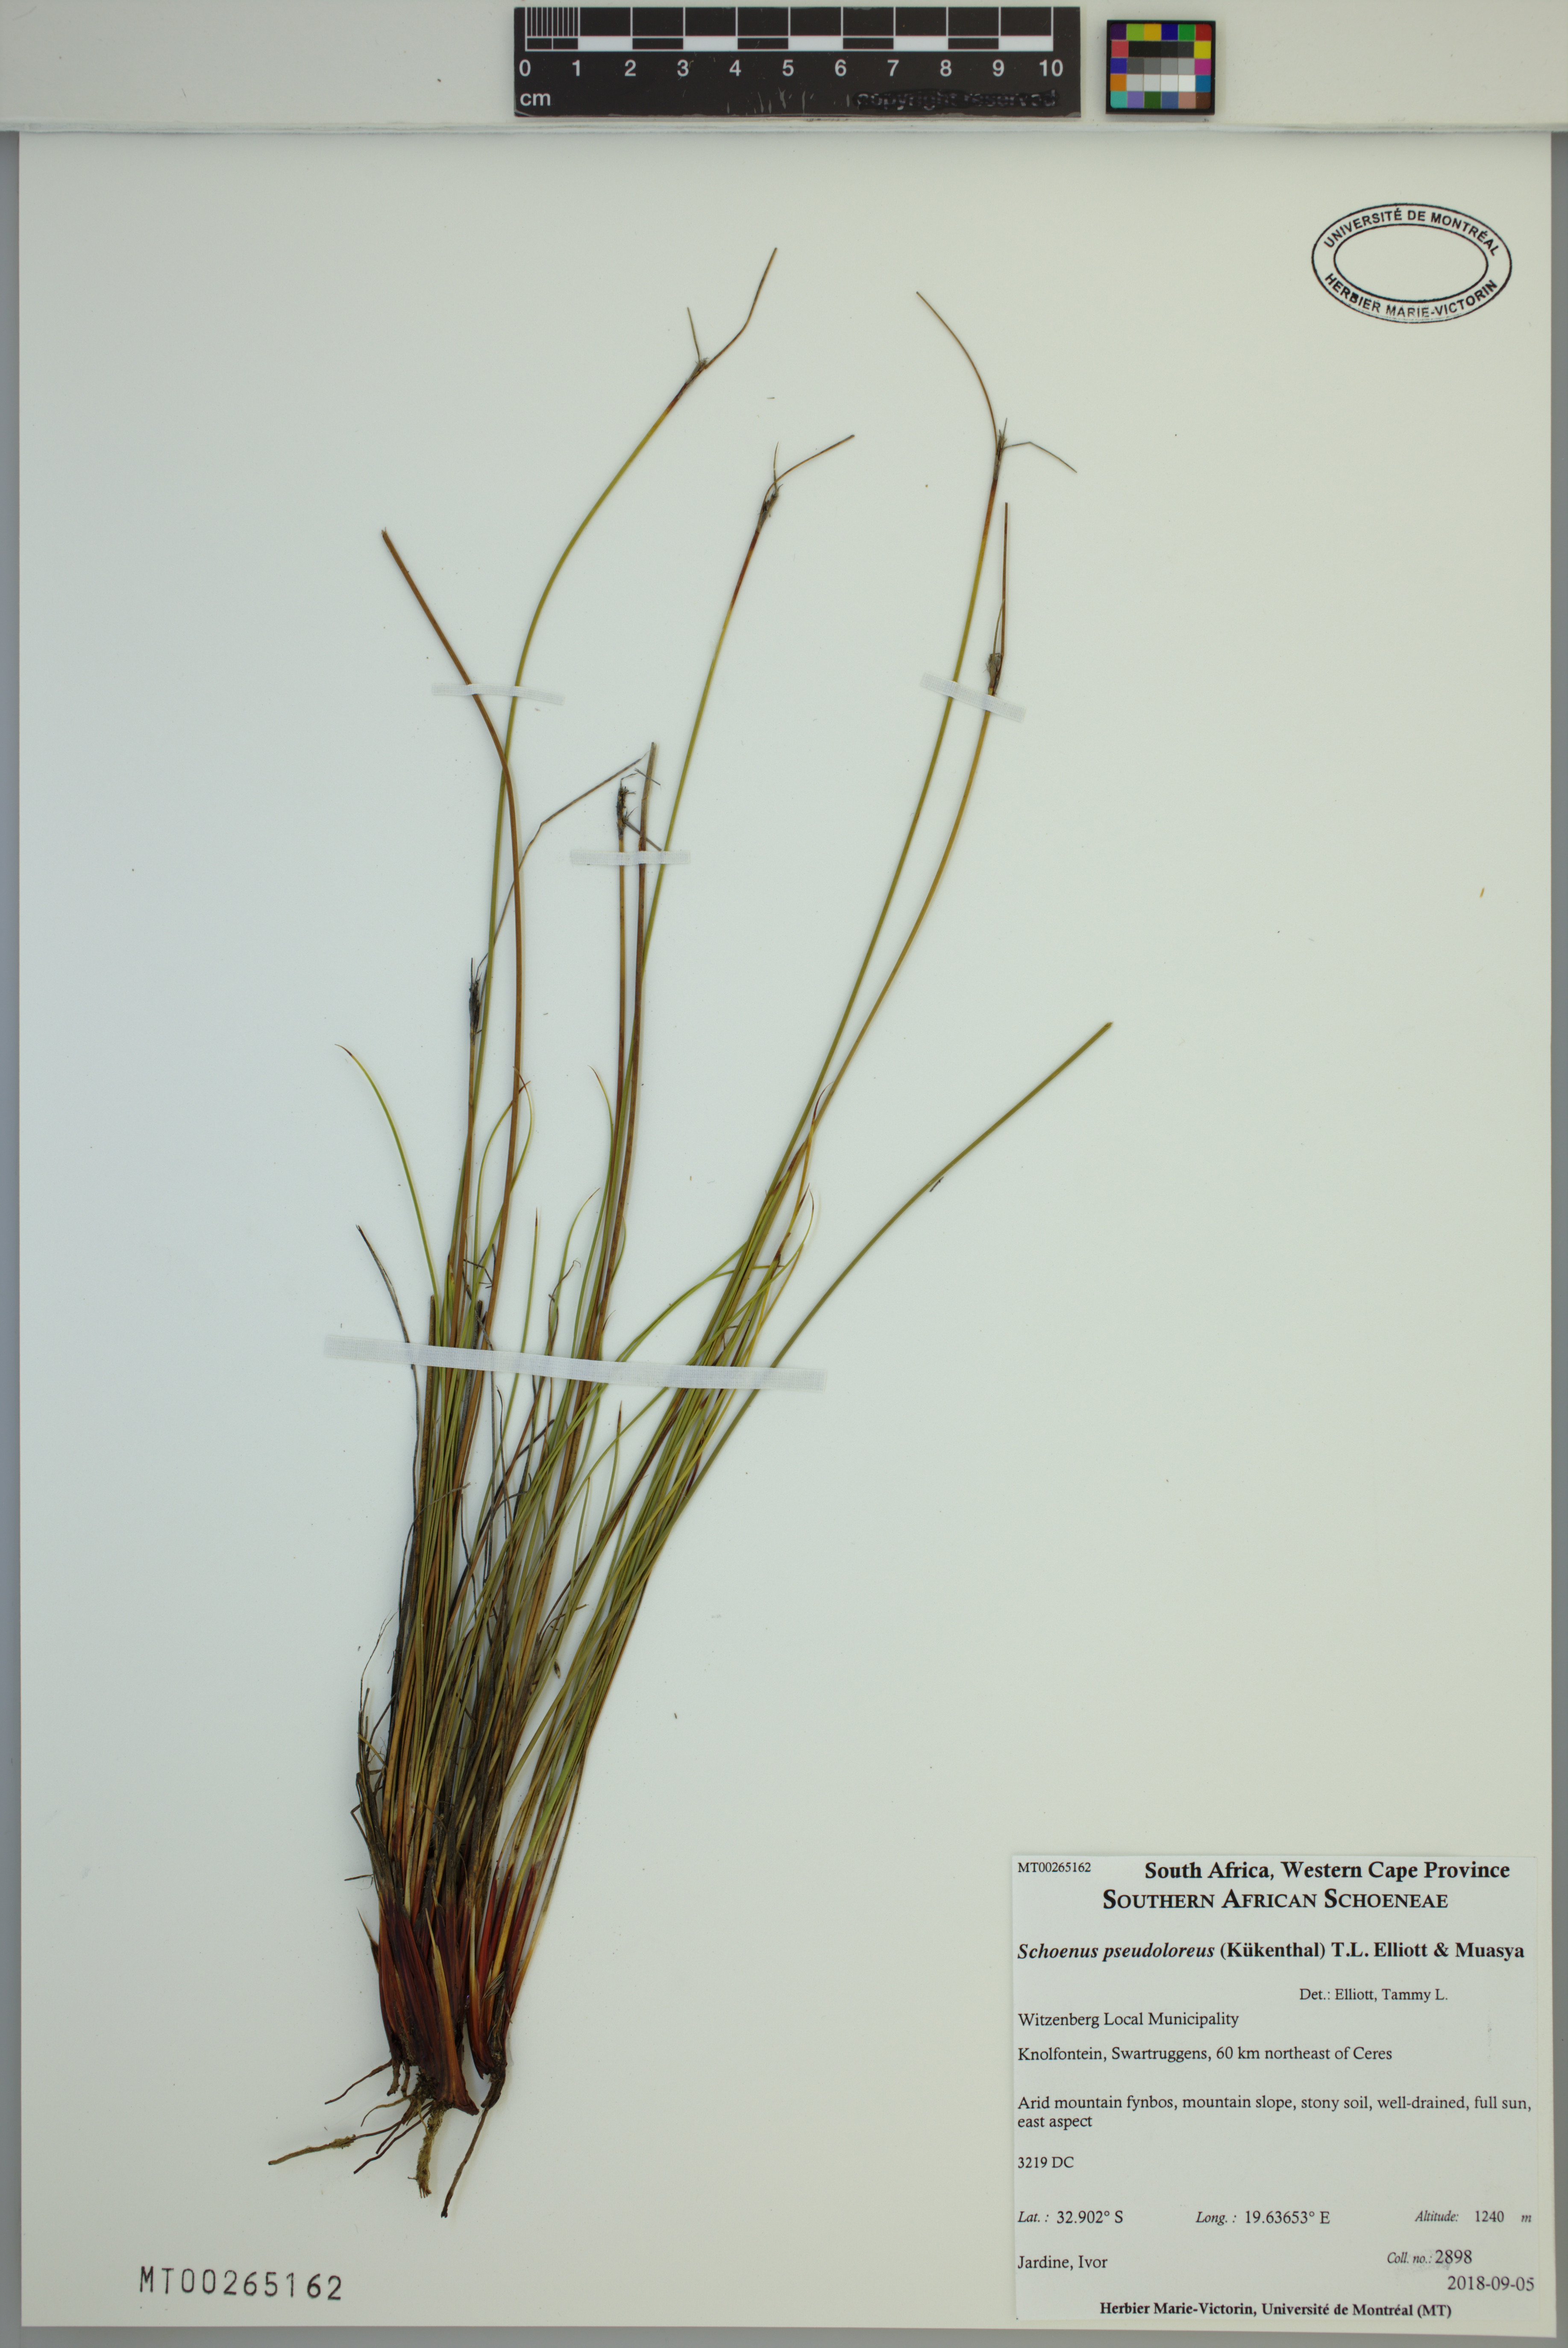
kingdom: Plantae
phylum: Tracheophyta
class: Liliopsida
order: Poales
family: Cyperaceae
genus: Schoenus
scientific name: Schoenus pseudoloreus
